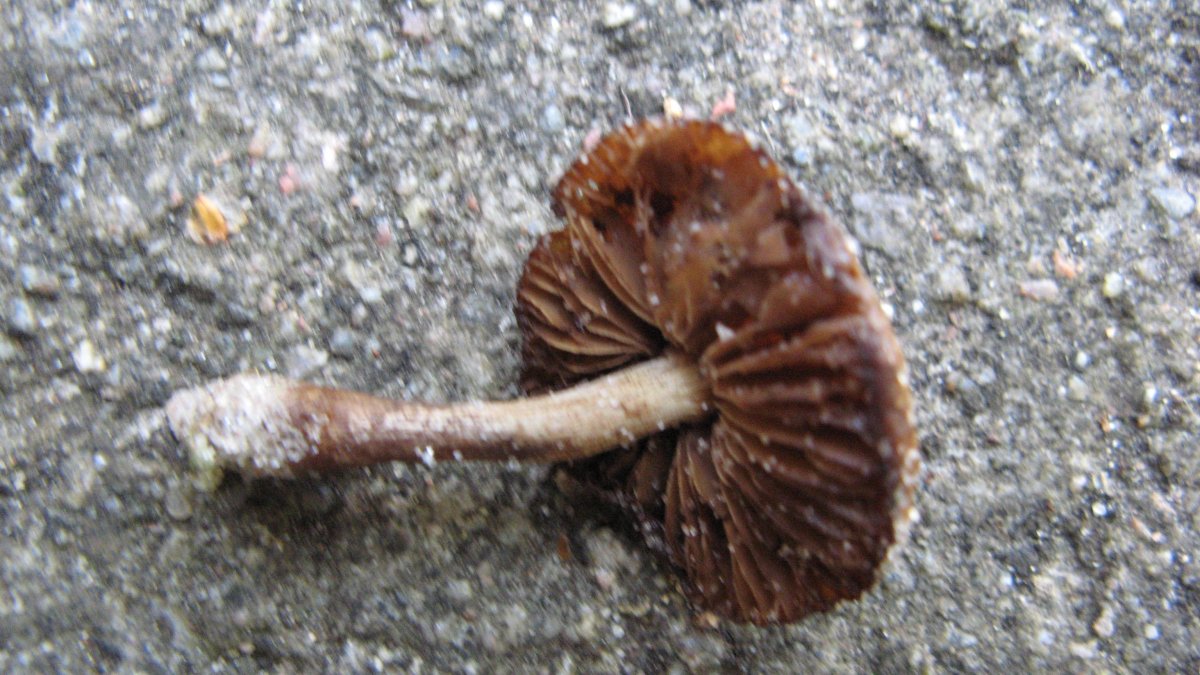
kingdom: Fungi
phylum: Basidiomycota
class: Agaricomycetes
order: Agaricales
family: Inocybaceae
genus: Inocybe
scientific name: Inocybe dulcamara
